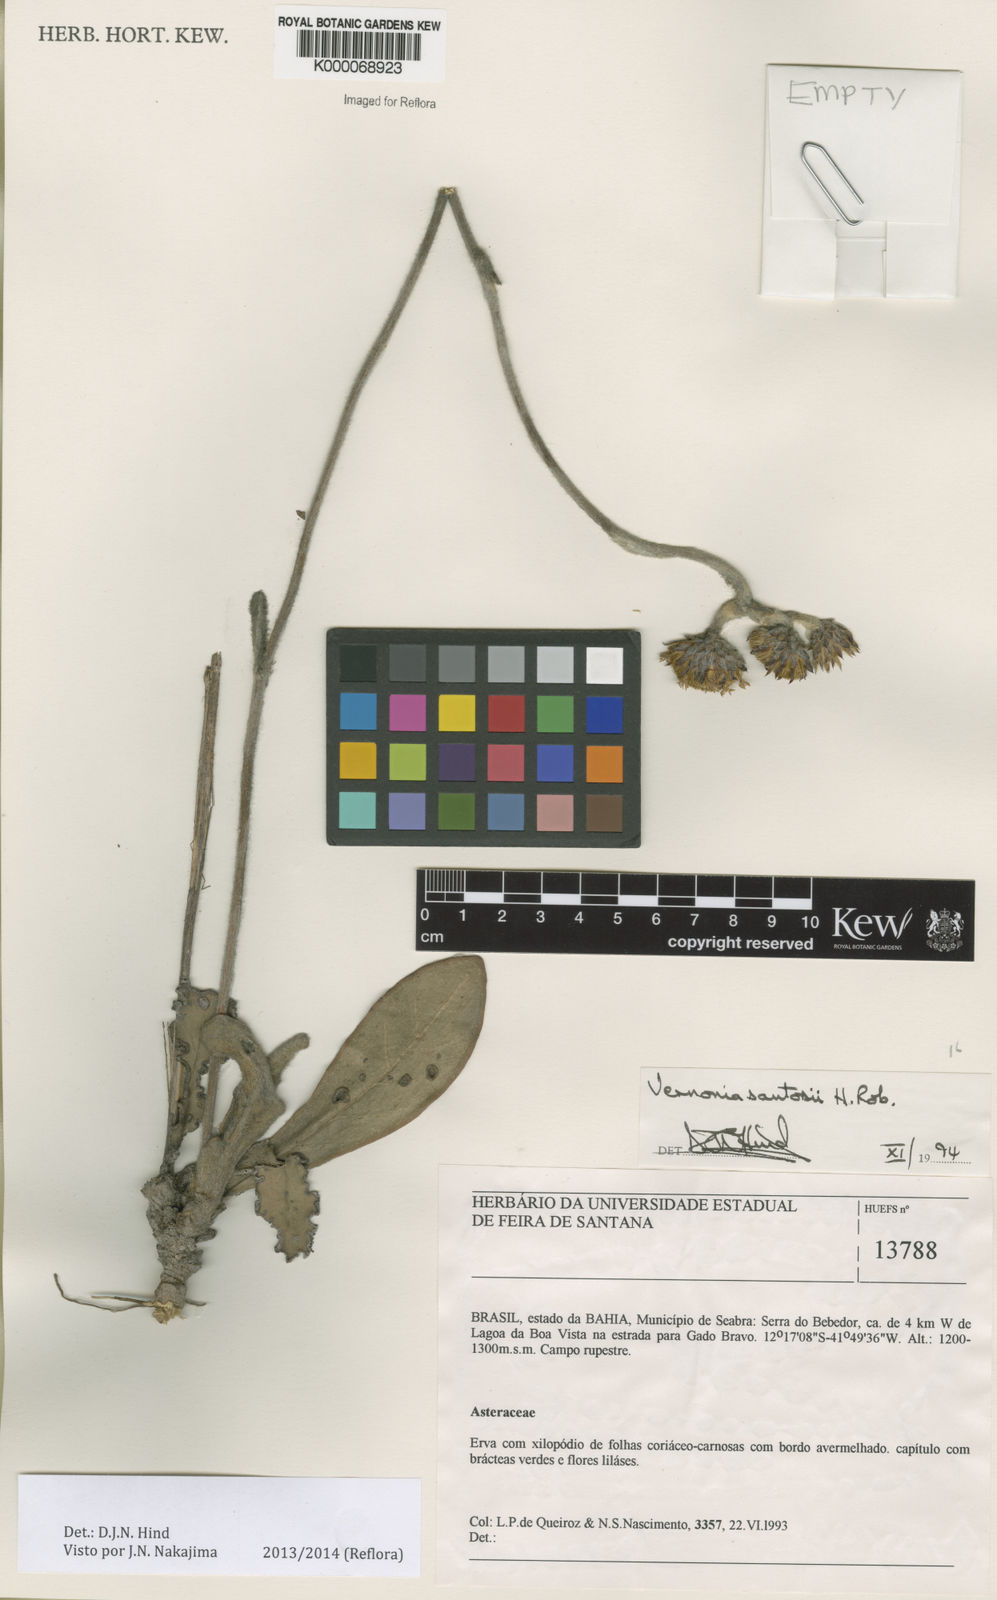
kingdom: Plantae
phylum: Tracheophyta
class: Magnoliopsida
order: Asterales
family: Asteraceae
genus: Lessingianthus
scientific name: Lessingianthus santosii
